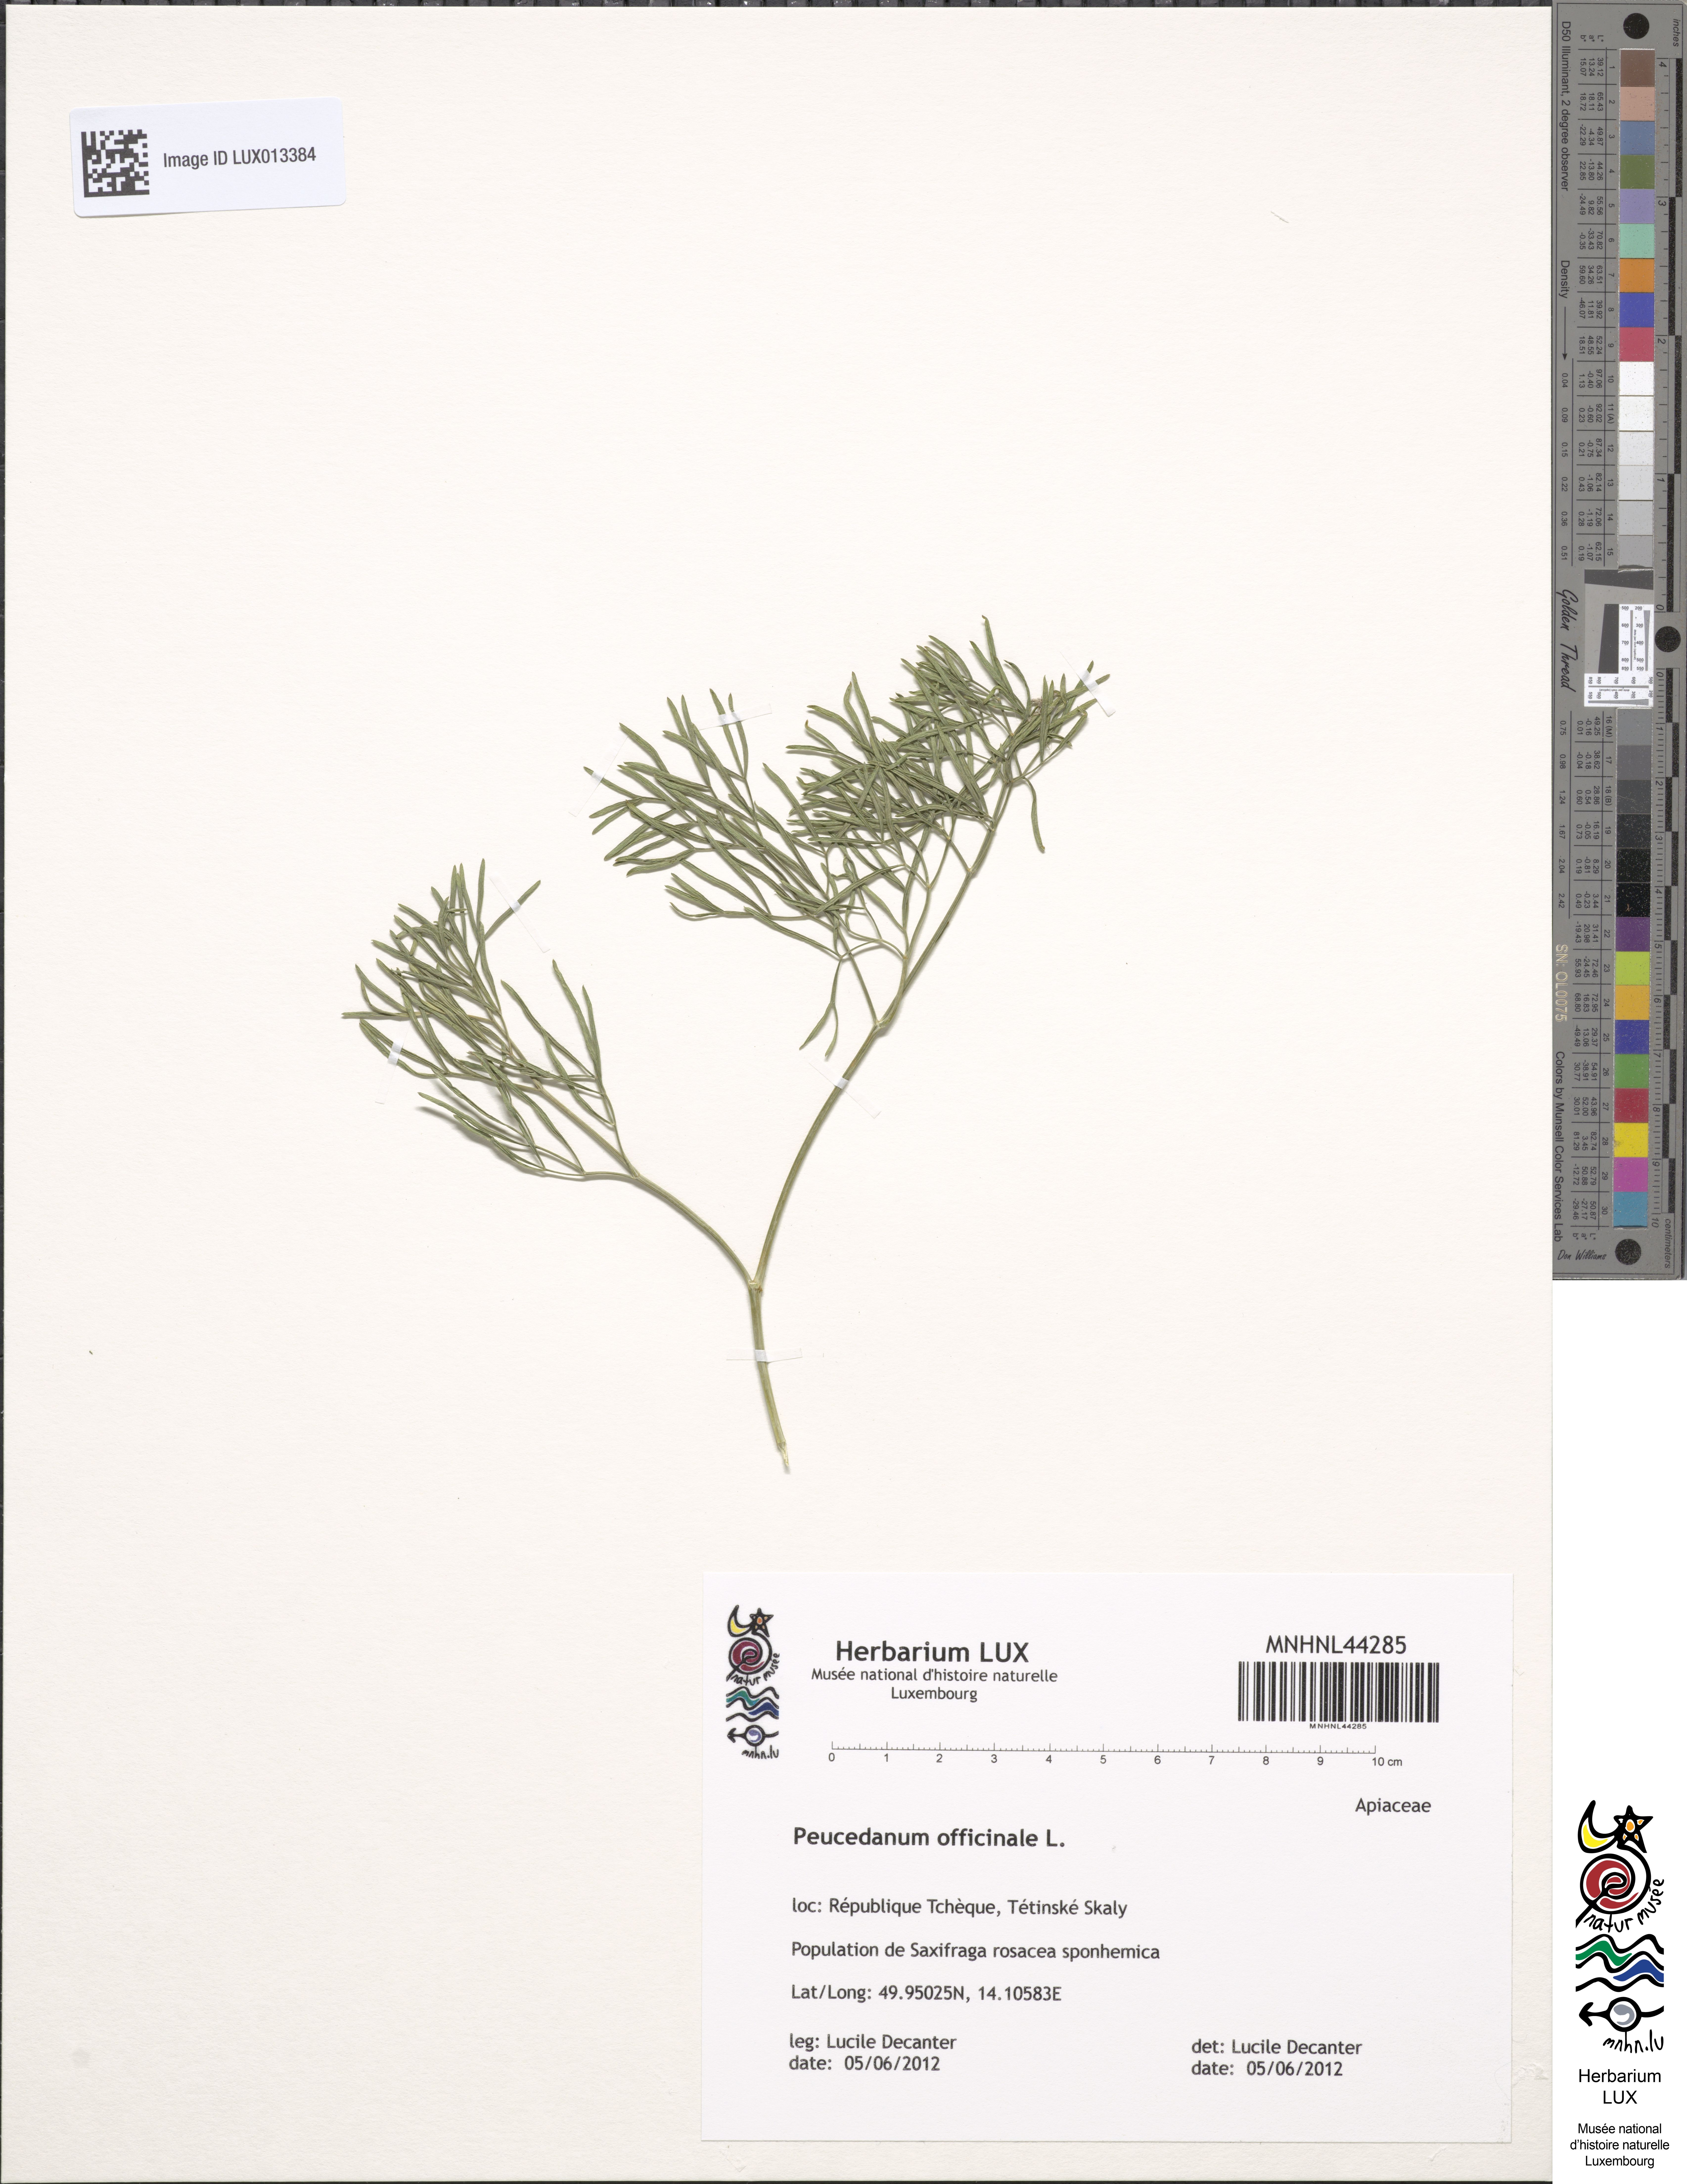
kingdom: Plantae
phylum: Tracheophyta
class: Magnoliopsida
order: Apiales
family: Apiaceae
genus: Peucedanum
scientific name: Peucedanum officinale
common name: Sulphurweed
